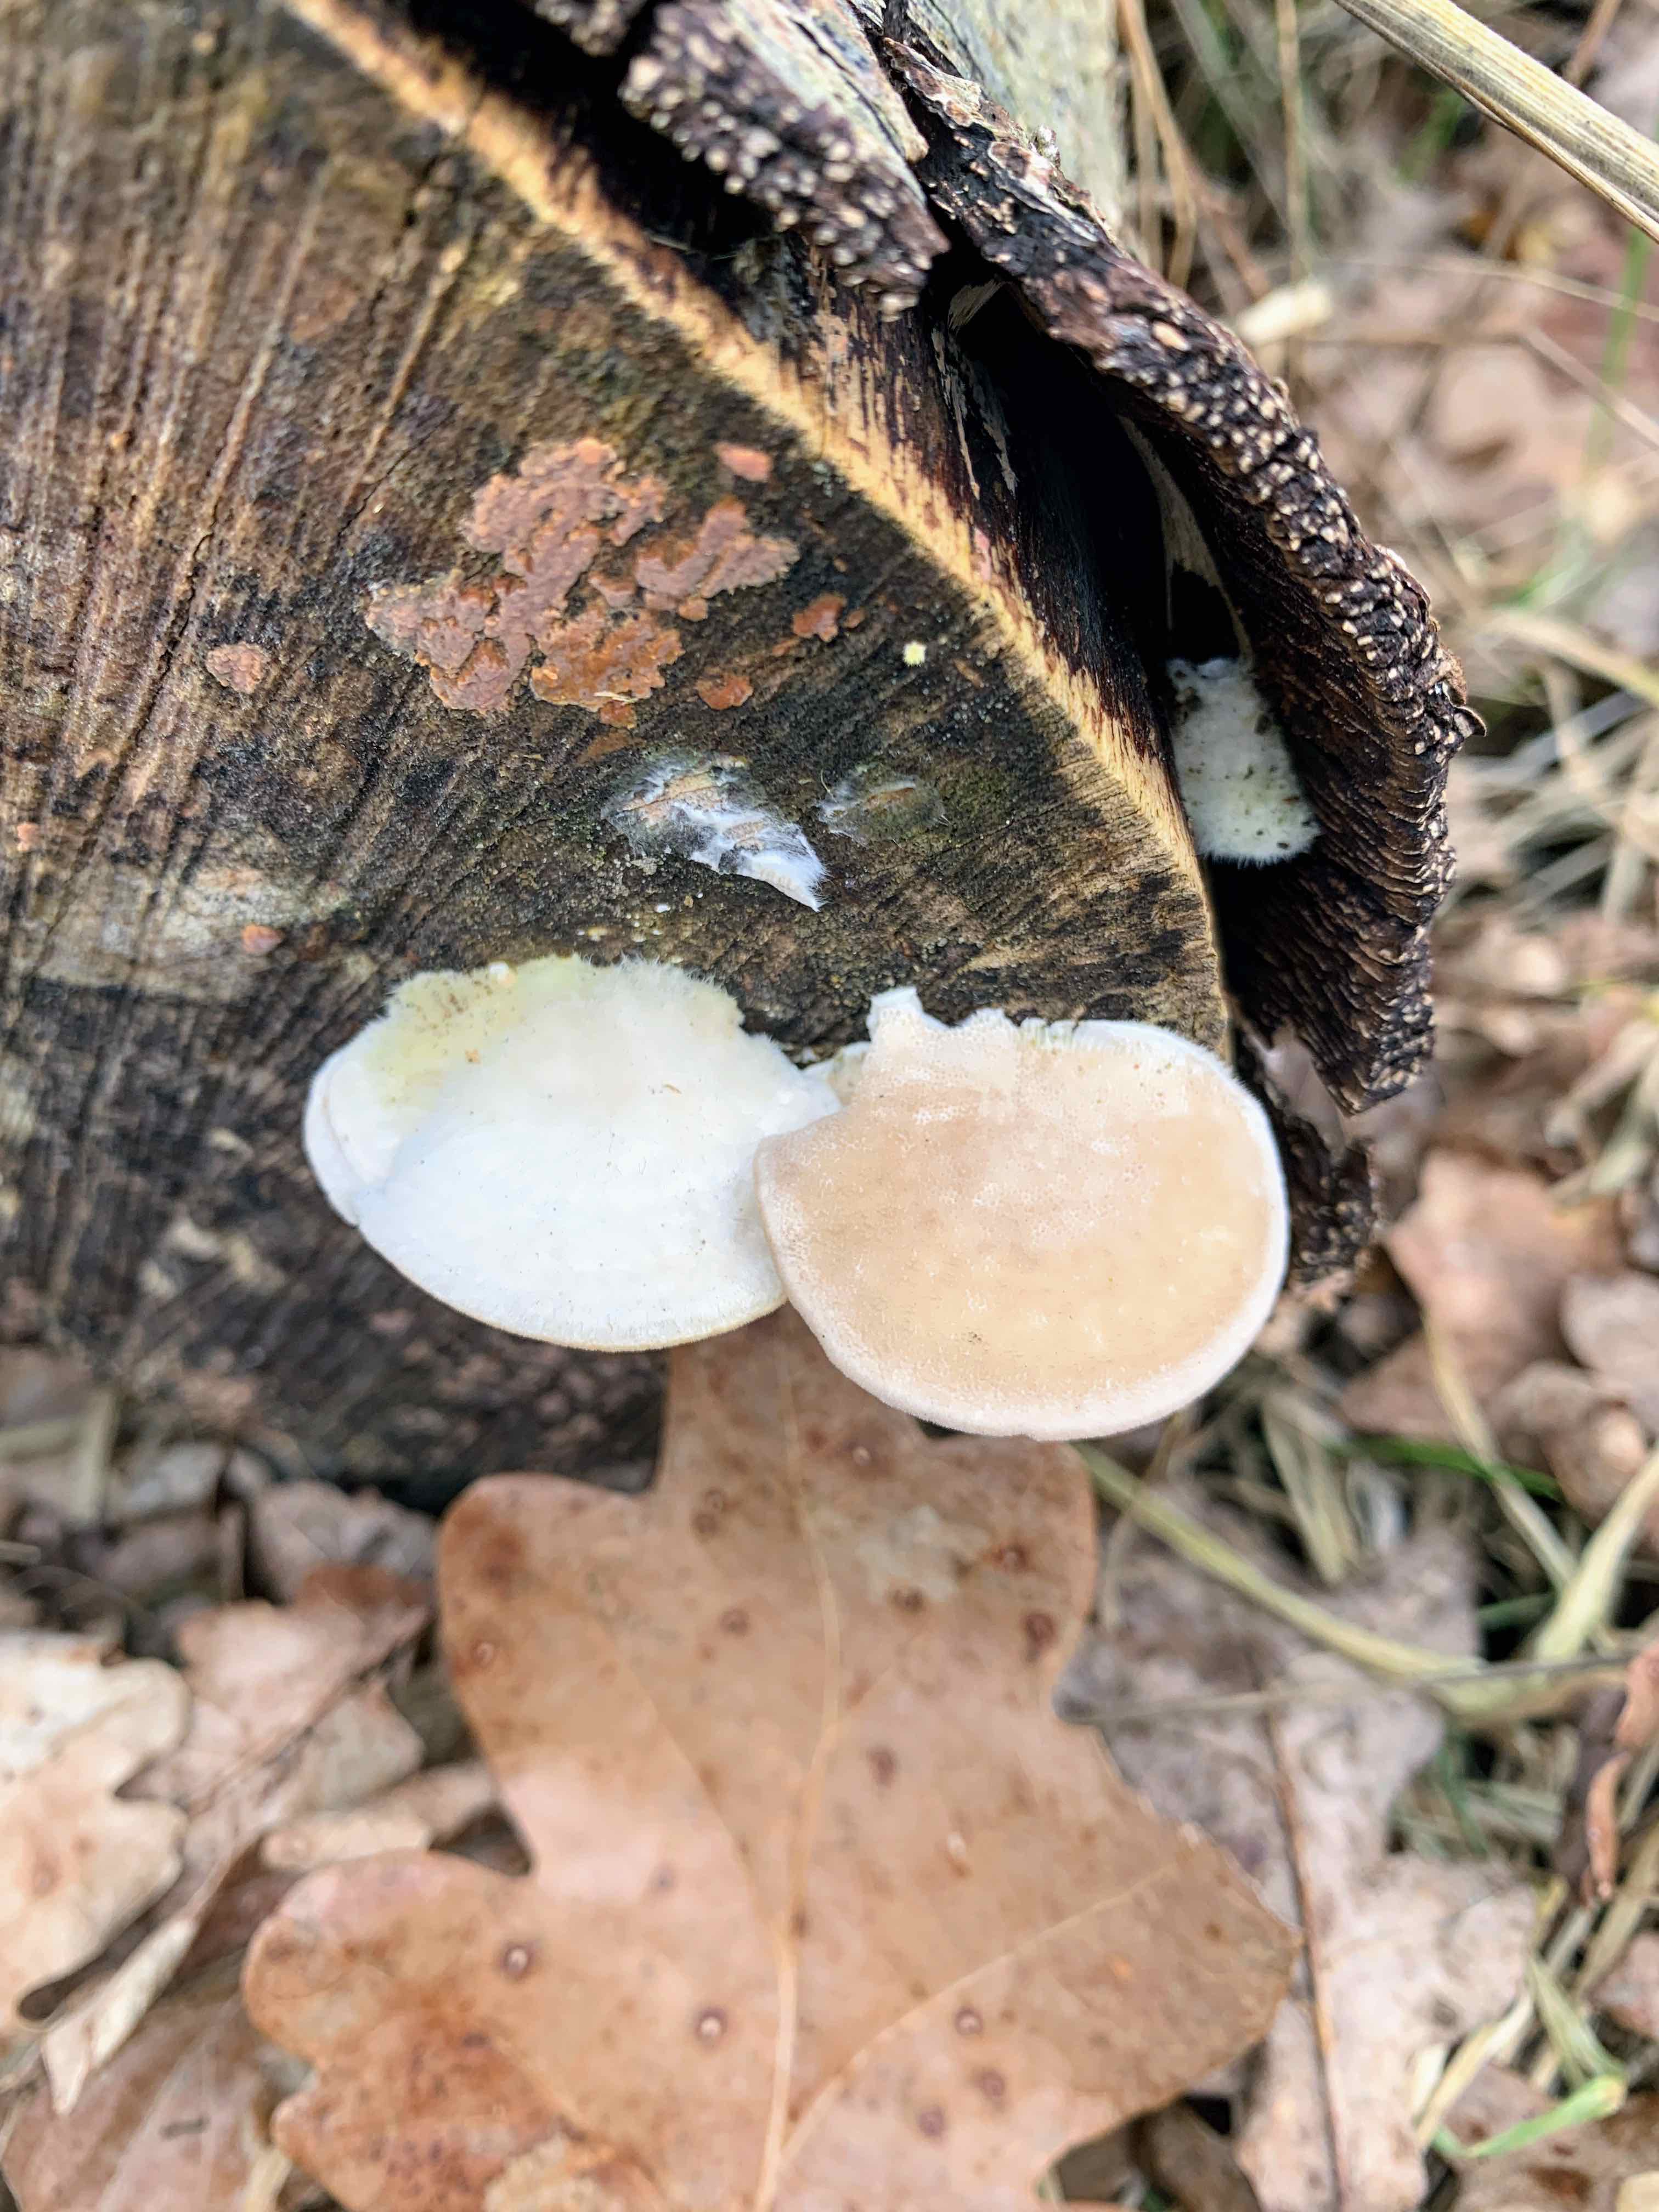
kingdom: Fungi
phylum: Basidiomycota
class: Agaricomycetes
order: Polyporales
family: Polyporaceae
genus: Trametes
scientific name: Trametes hirsuta
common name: håret læderporesvamp
